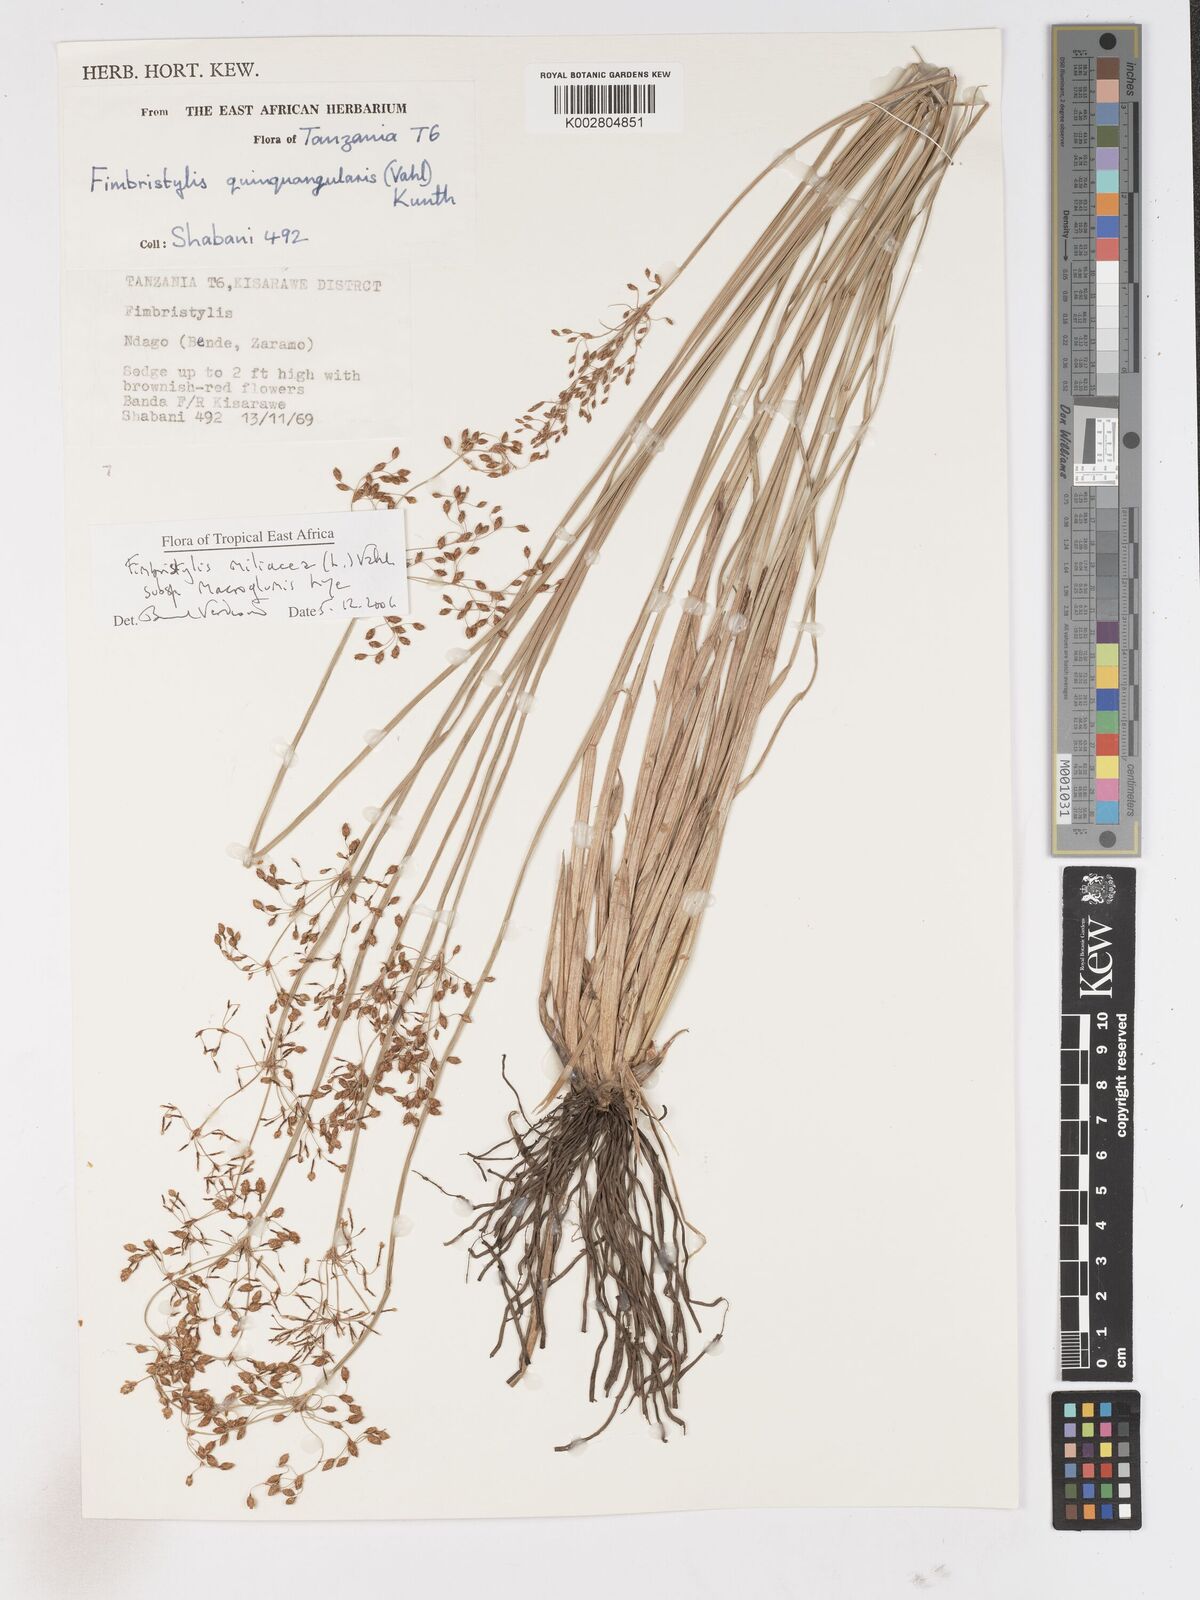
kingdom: Plantae
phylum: Tracheophyta
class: Liliopsida
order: Poales
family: Cyperaceae
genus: Fimbristylis
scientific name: Fimbristylis quinquangularis
